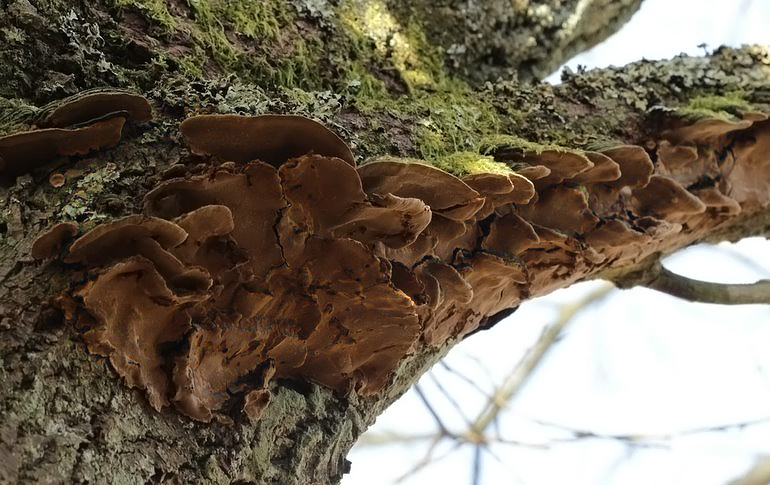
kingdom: Fungi
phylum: Basidiomycota
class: Agaricomycetes
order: Hymenochaetales
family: Hymenochaetaceae
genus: Phellinopsis
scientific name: Phellinopsis conchata
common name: pile-ildporesvamp
